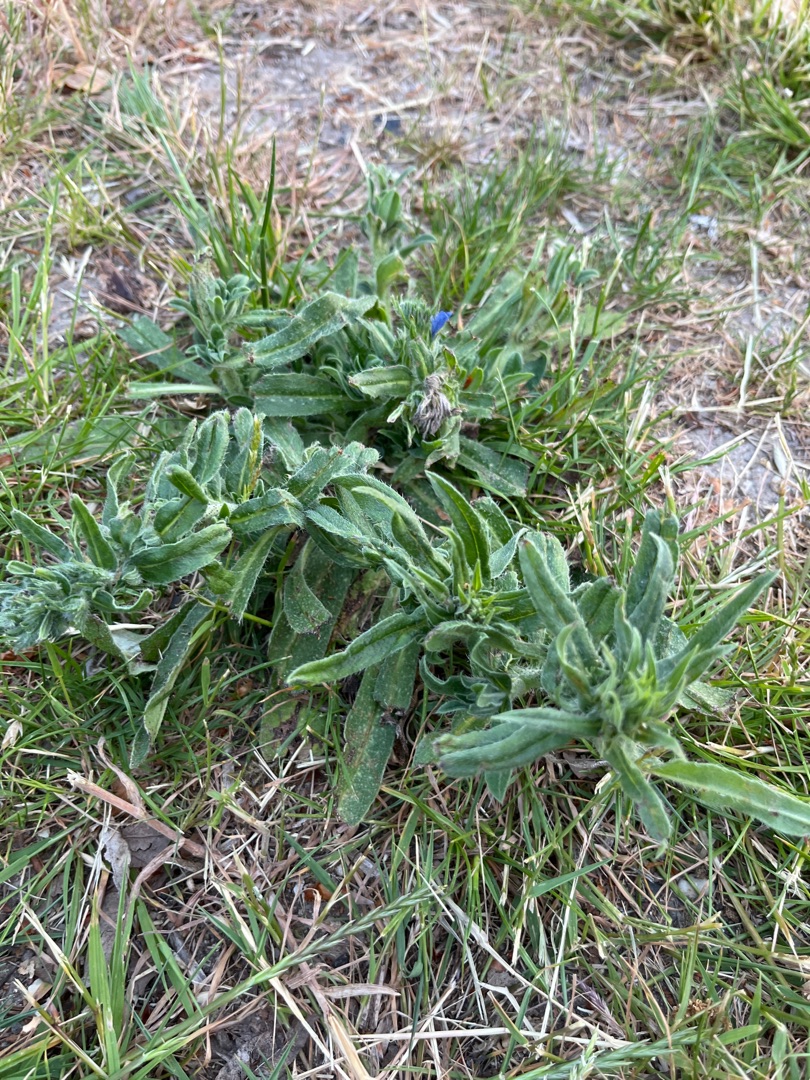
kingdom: Plantae
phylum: Tracheophyta
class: Magnoliopsida
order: Boraginales
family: Boraginaceae
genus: Echium
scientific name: Echium vulgare
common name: Slangehoved
